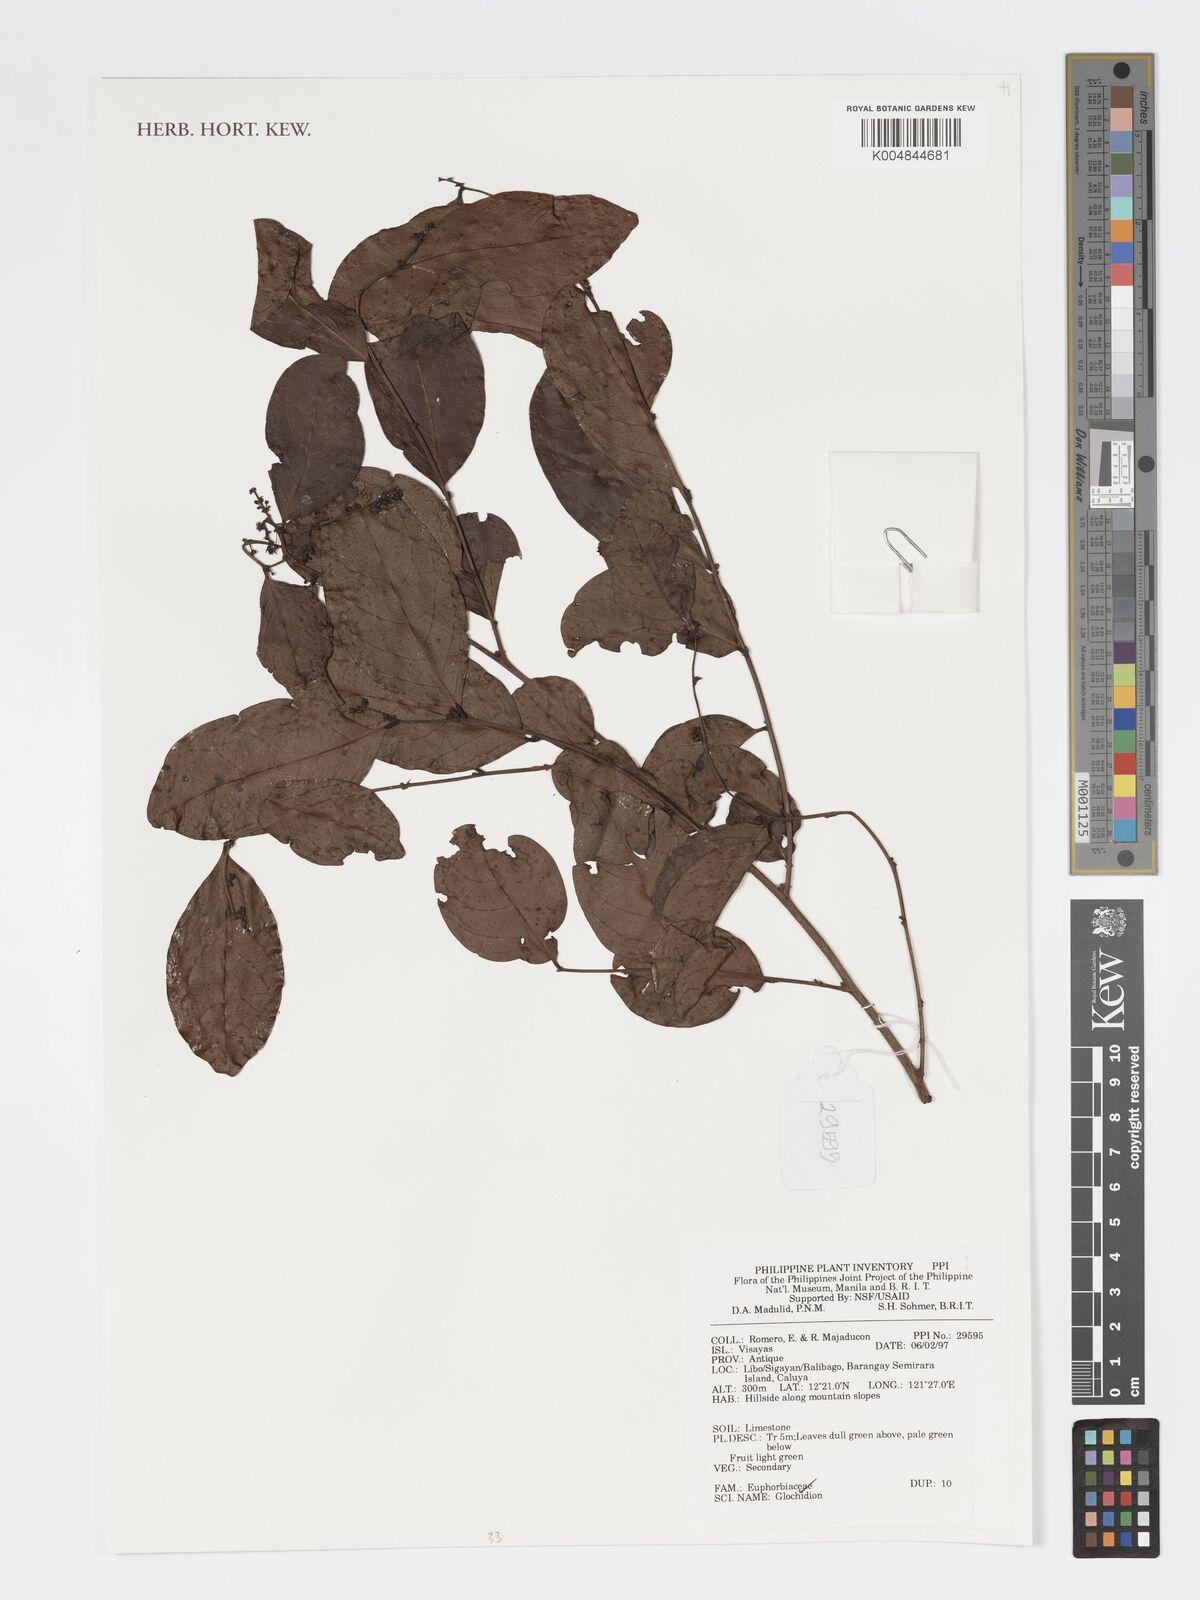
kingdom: Plantae
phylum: Tracheophyta
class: Magnoliopsida
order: Malpighiales
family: Phyllanthaceae
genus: Glochidion
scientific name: Glochidion
